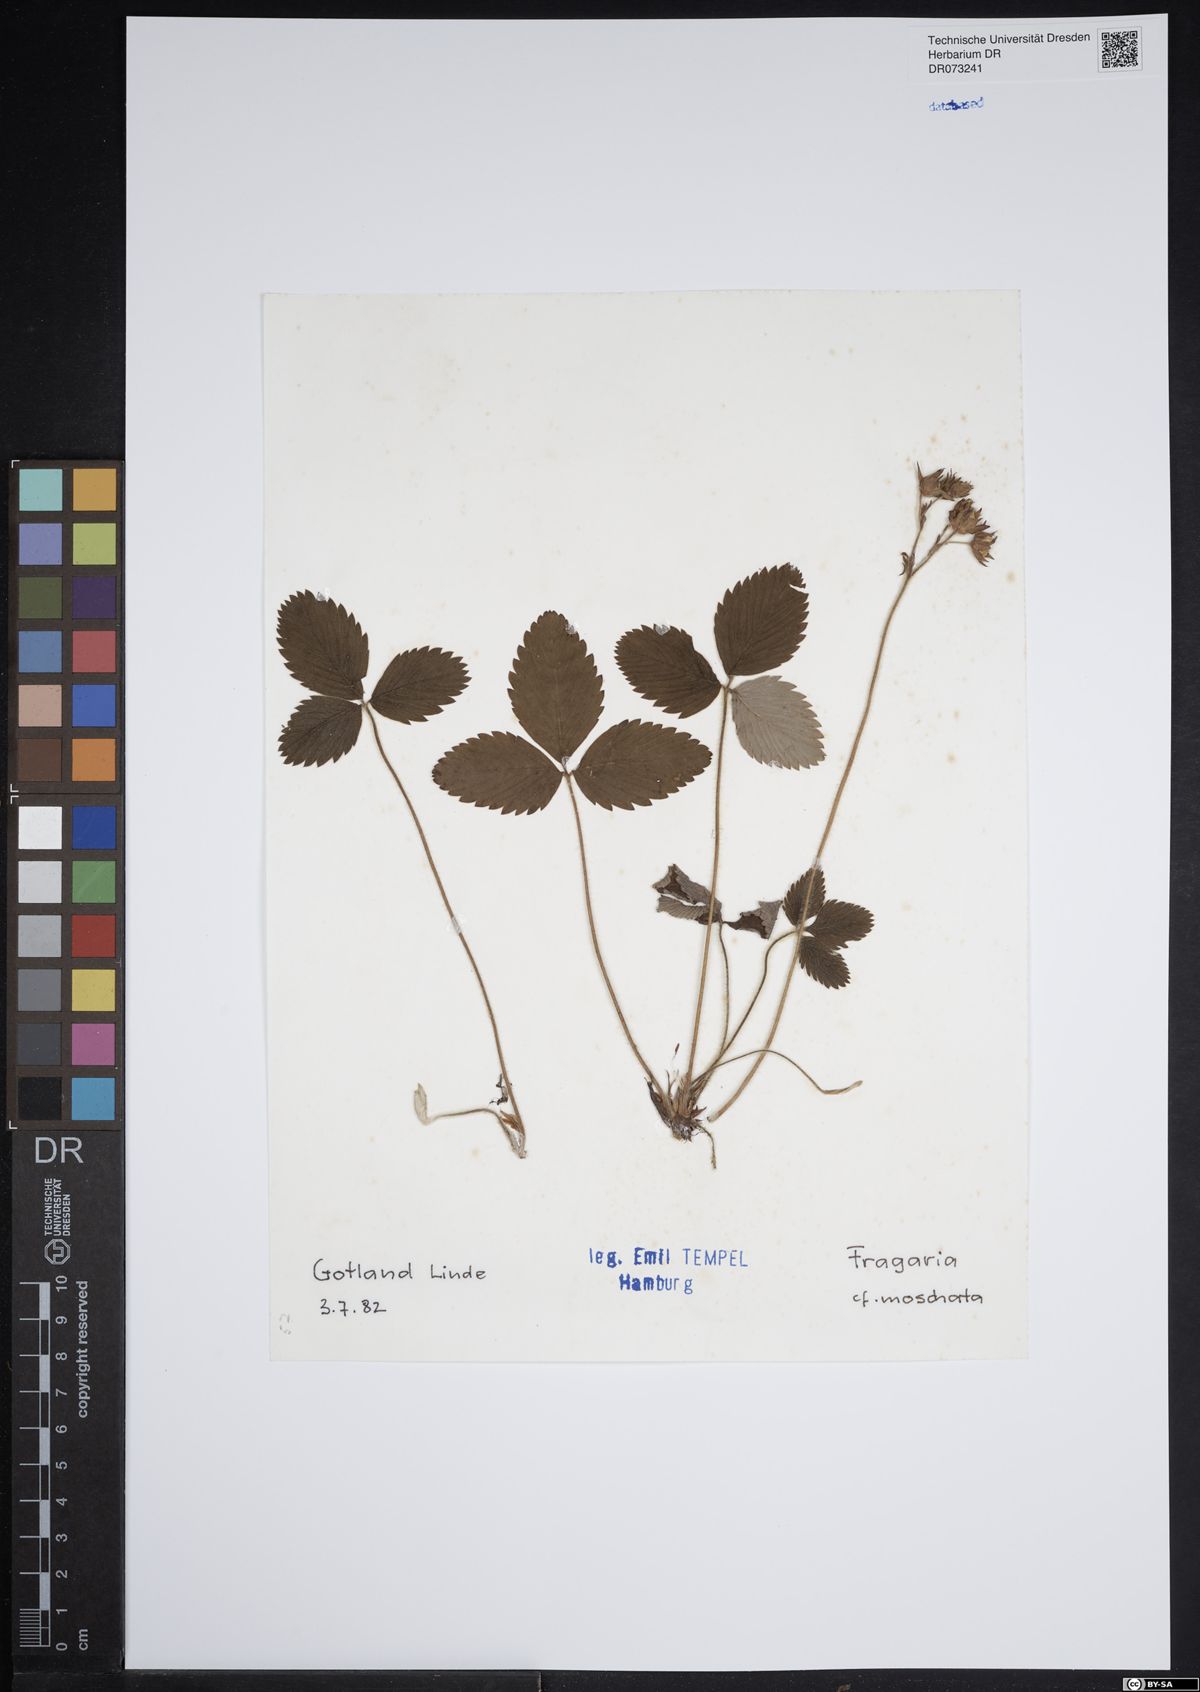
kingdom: Plantae
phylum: Tracheophyta
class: Magnoliopsida
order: Rosales
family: Rosaceae
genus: Fragaria
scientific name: Fragaria moschata
